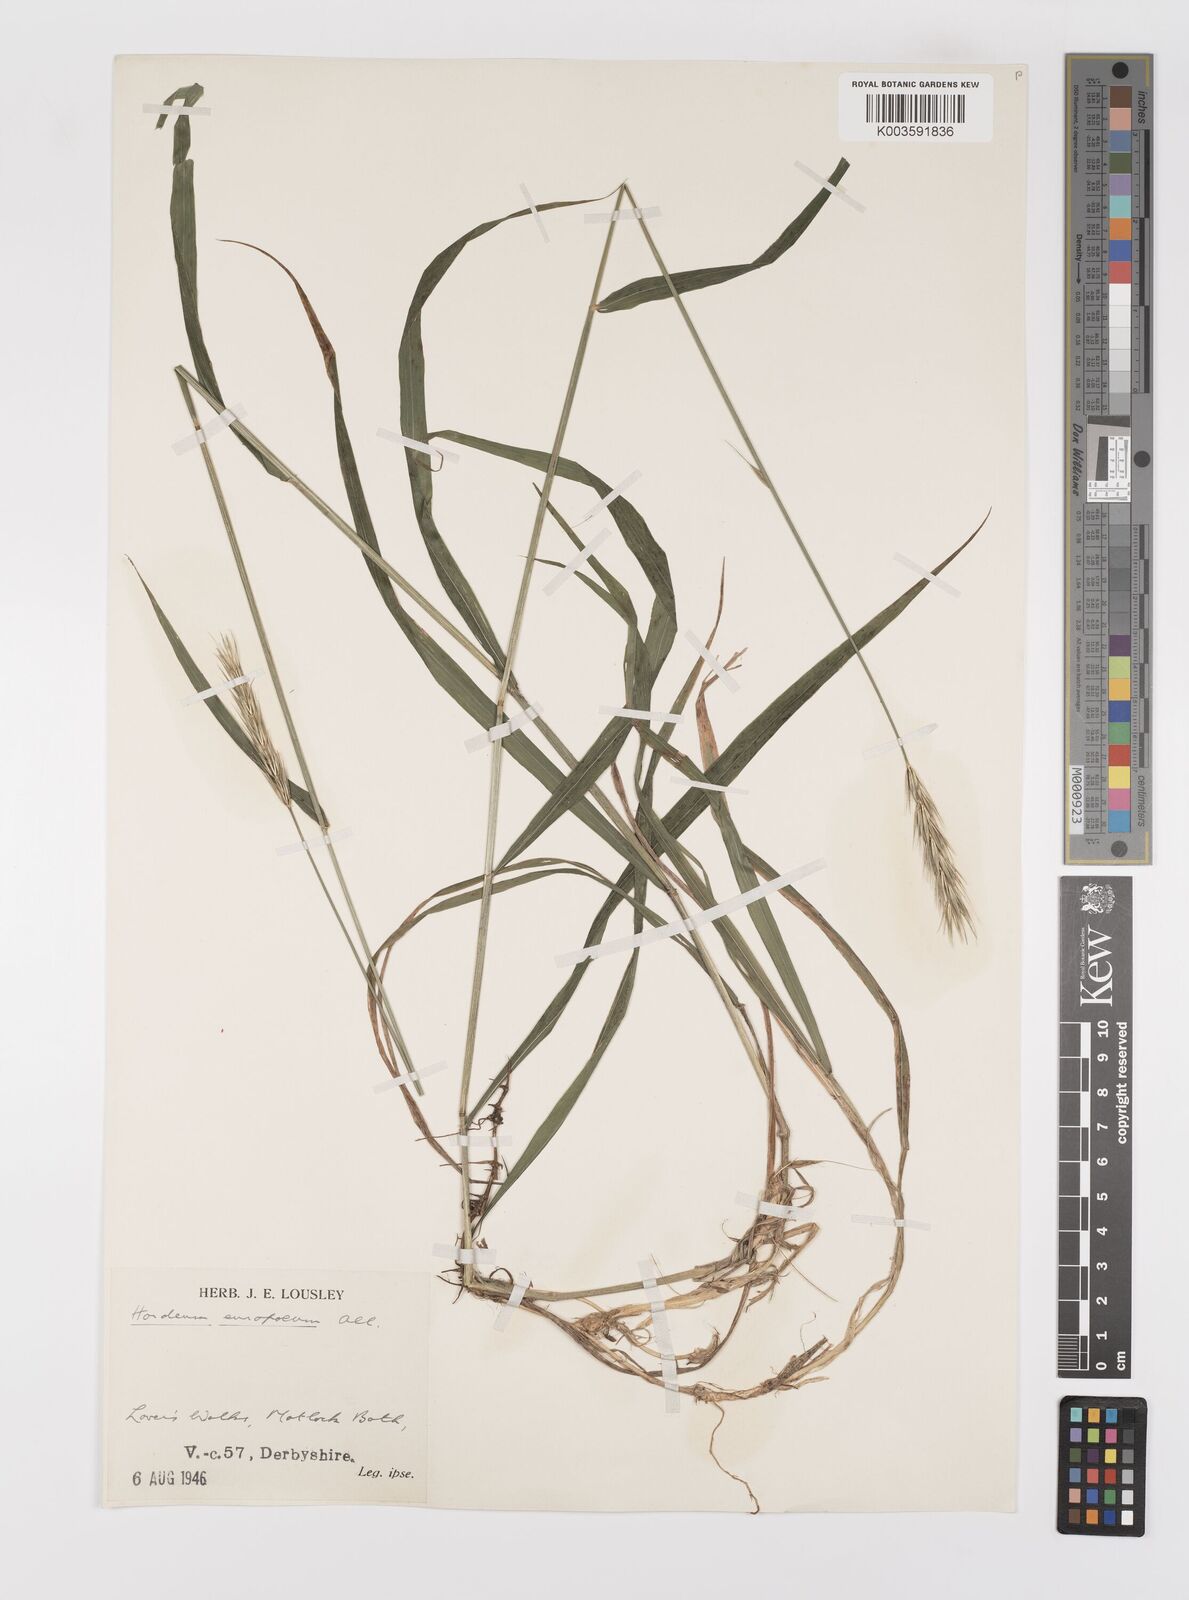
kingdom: Plantae
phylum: Tracheophyta
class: Liliopsida
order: Poales
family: Poaceae
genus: Hordelymus
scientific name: Hordelymus europaeus
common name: Wood-barley
